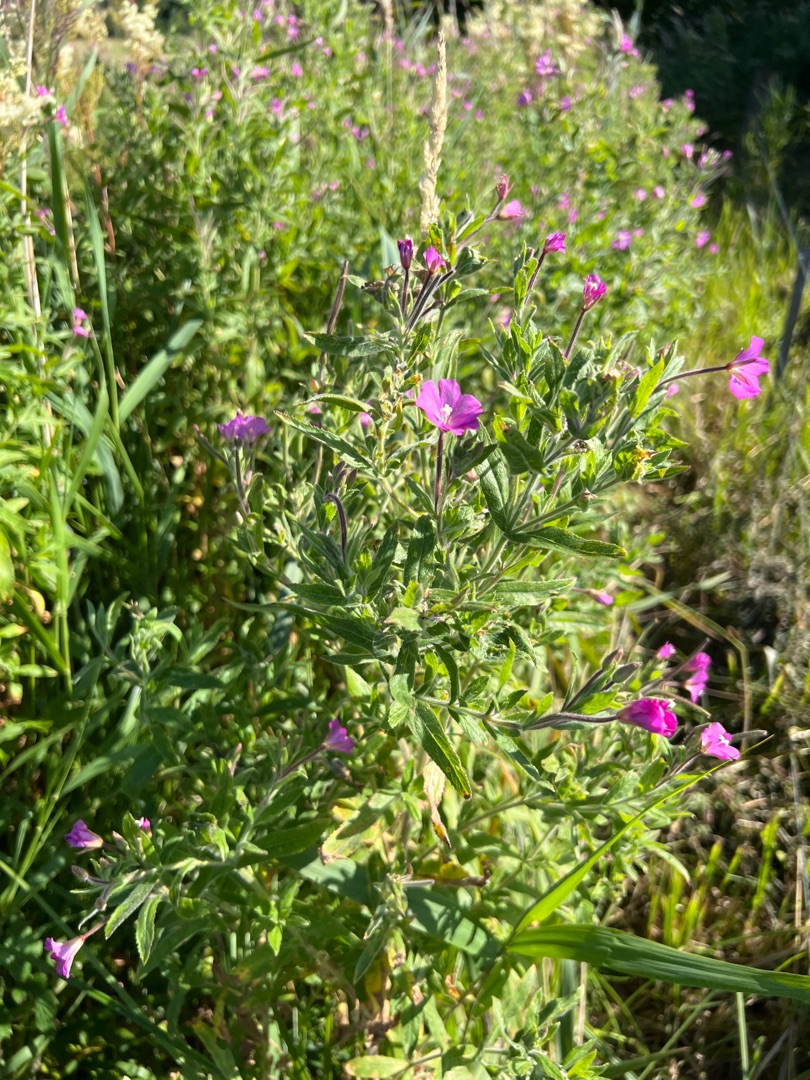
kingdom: Plantae
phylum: Tracheophyta
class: Magnoliopsida
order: Myrtales
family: Onagraceae
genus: Epilobium
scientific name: Epilobium hirsutum
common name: Lådden dueurt
